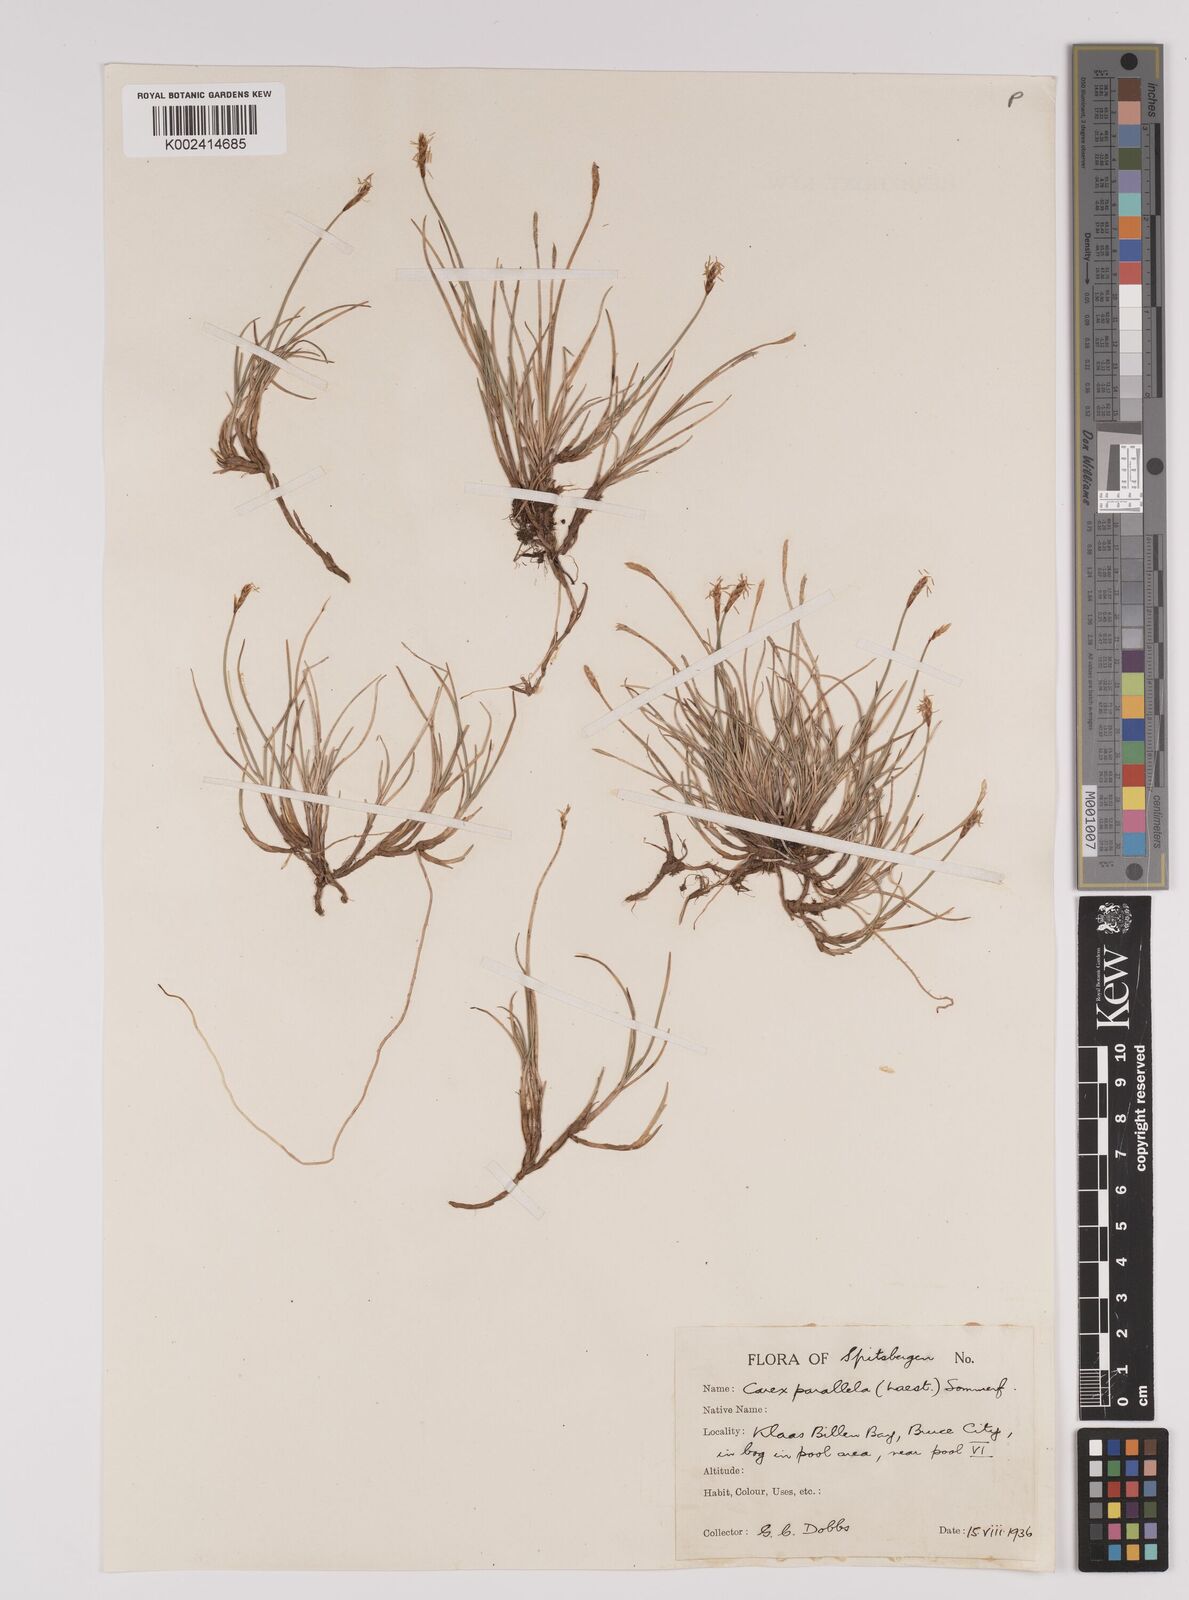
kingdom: Plantae
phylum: Tracheophyta
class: Liliopsida
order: Poales
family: Cyperaceae
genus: Carex
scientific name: Carex parallela
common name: Parallel sedge
